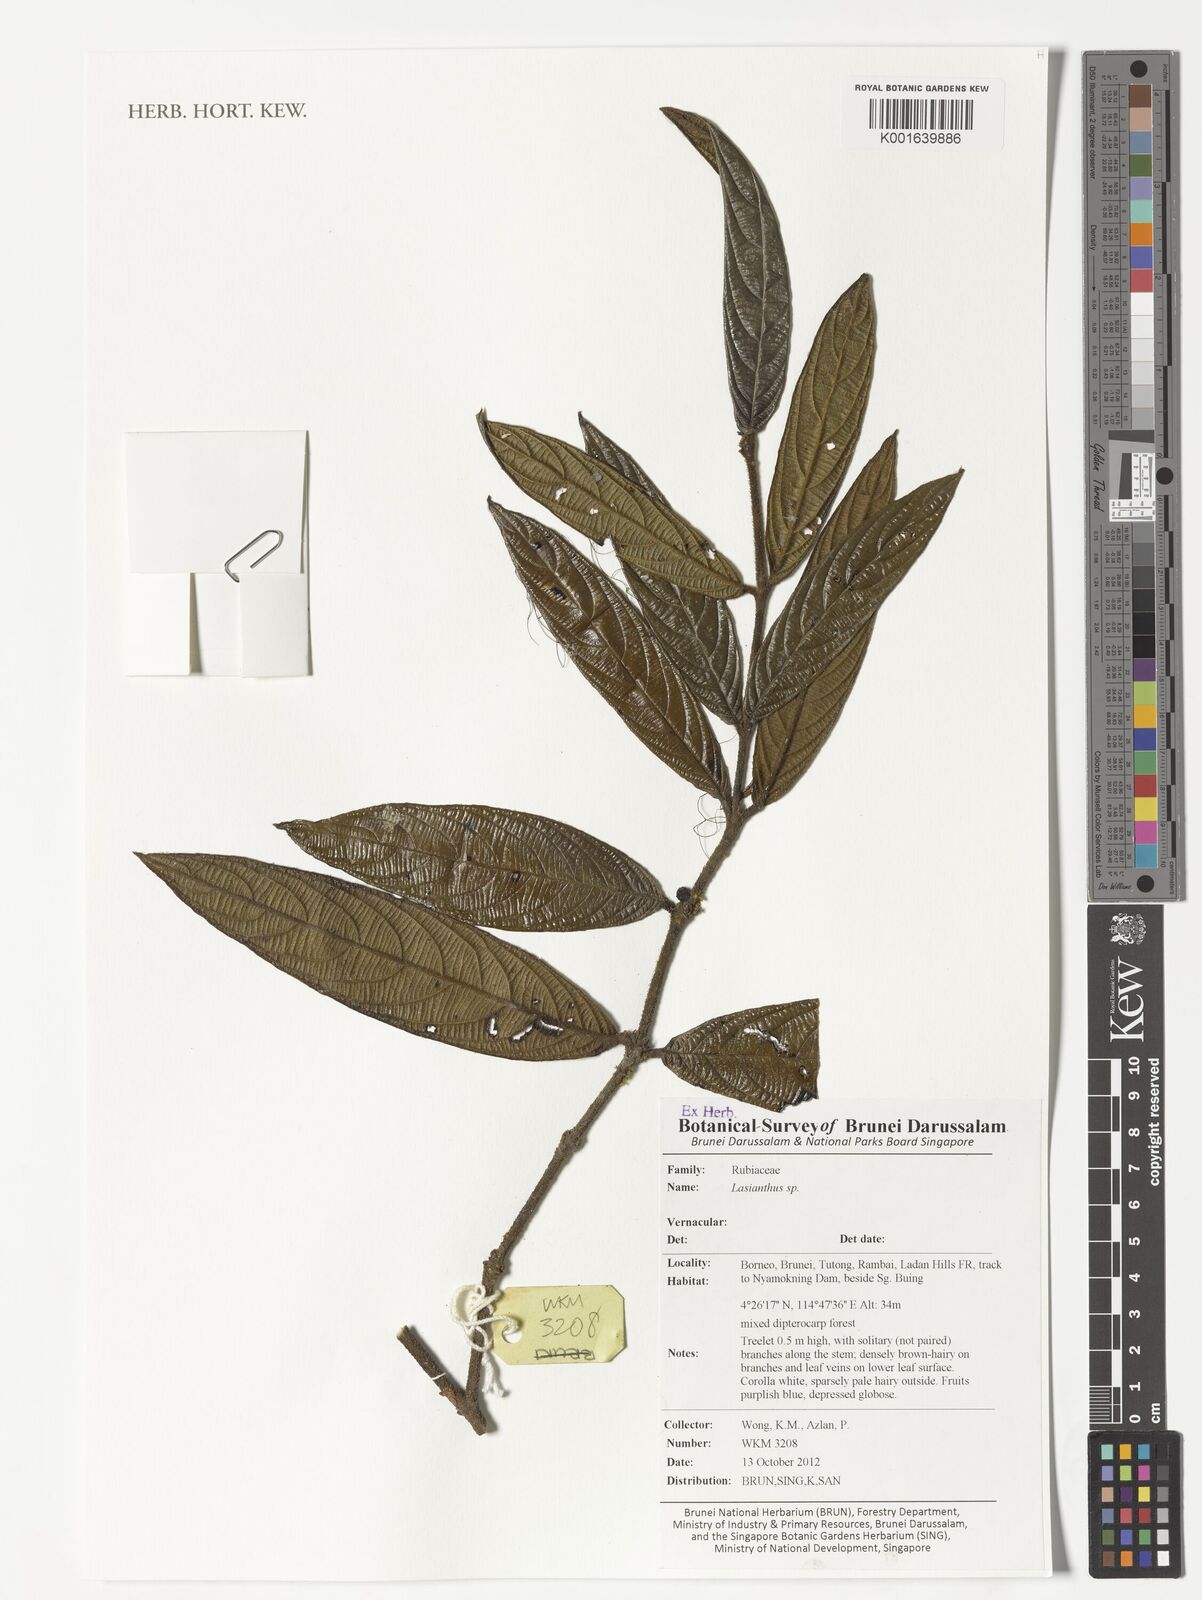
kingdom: Plantae
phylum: Tracheophyta
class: Magnoliopsida
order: Gentianales
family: Rubiaceae
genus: Lasianthus
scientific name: Lasianthus
